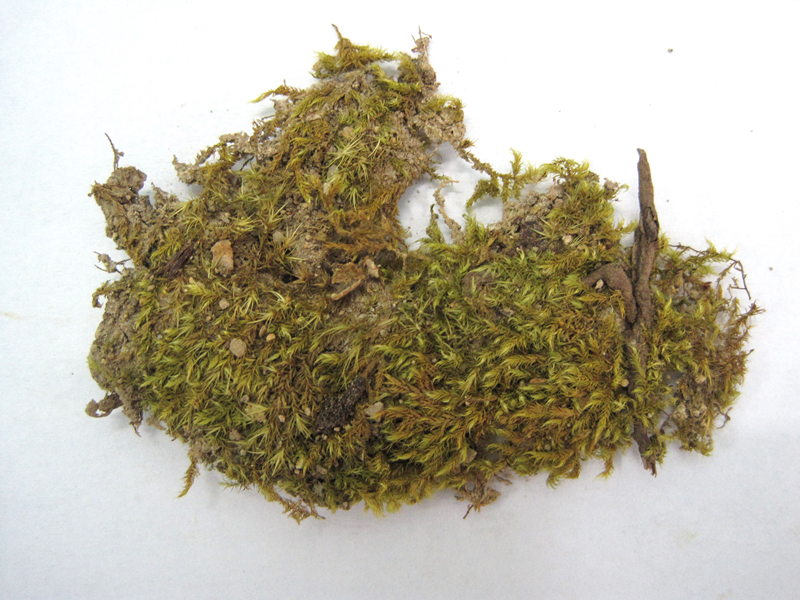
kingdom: Plantae
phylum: Bryophyta
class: Bryopsida
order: Hypnales
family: Sematophyllaceae
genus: Trichosteleum
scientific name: Trichosteleum stigmosum
